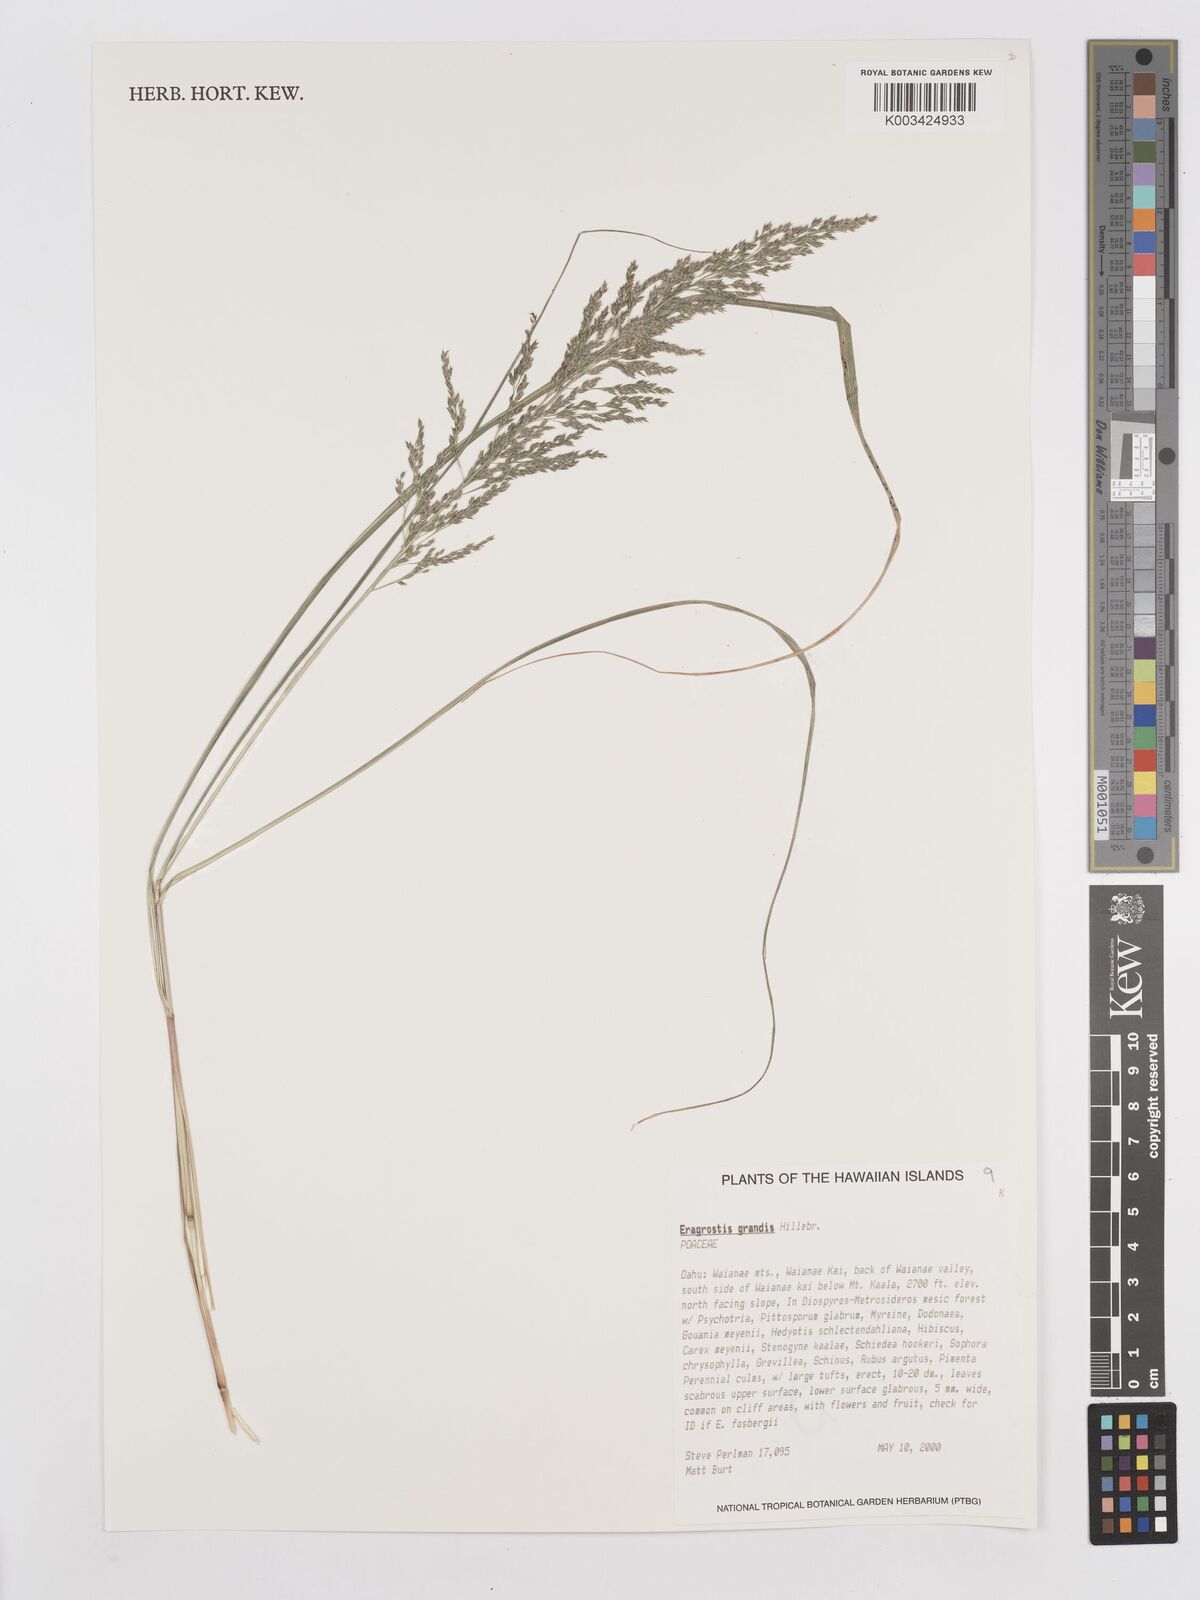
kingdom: Plantae
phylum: Tracheophyta
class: Liliopsida
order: Poales
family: Poaceae
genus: Eragrostis
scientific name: Eragrostis grandis
